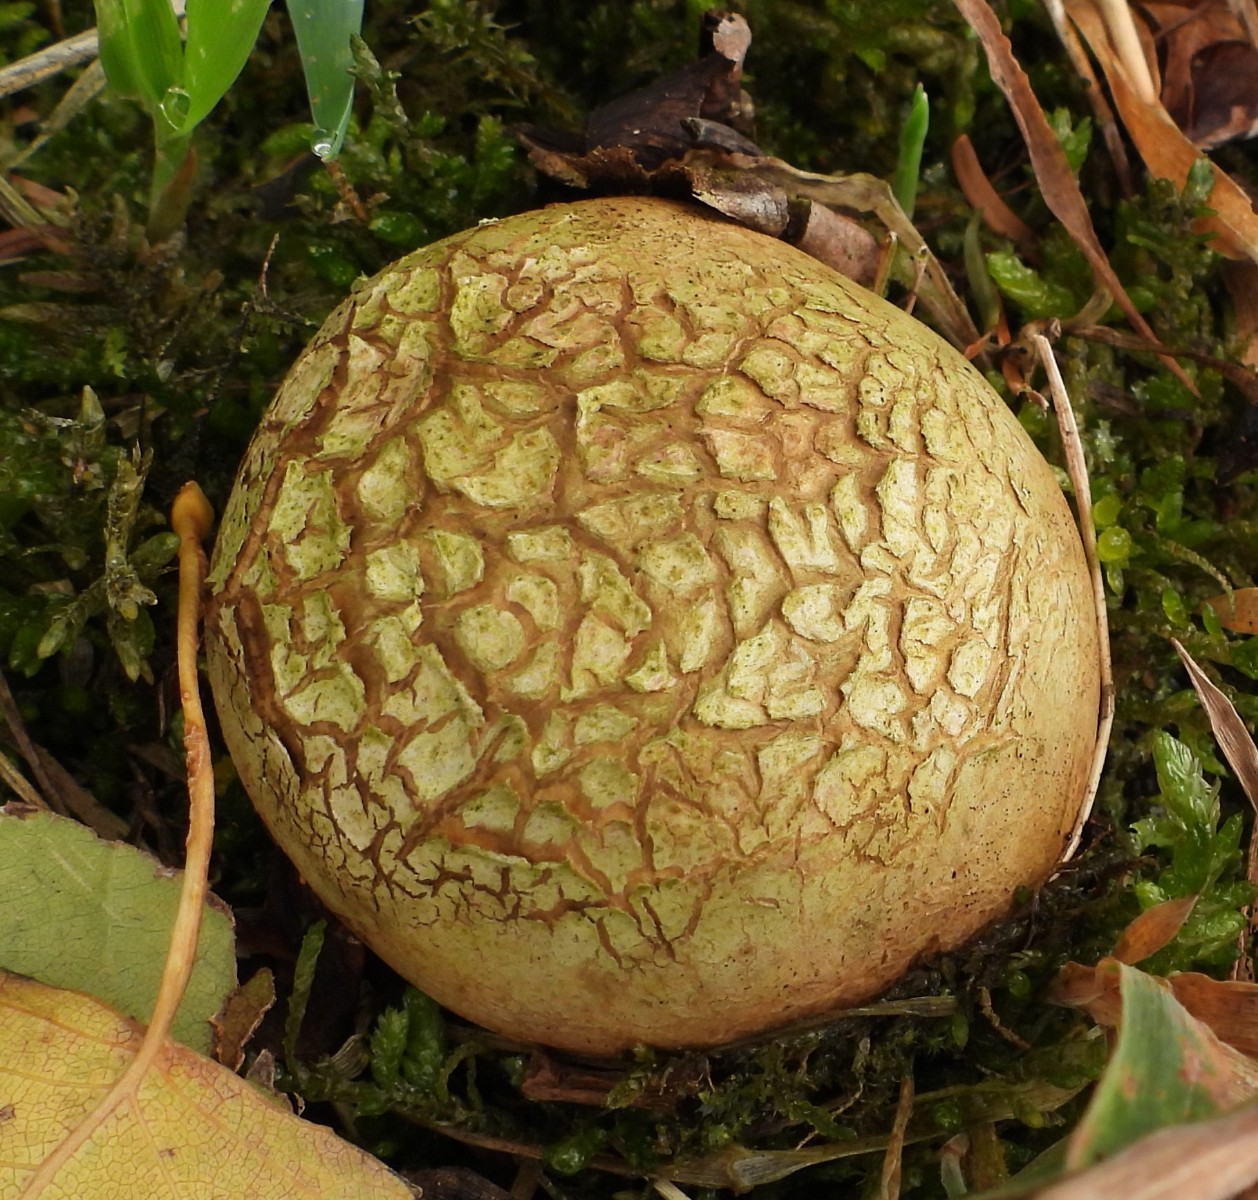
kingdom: Fungi
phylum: Basidiomycota
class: Agaricomycetes
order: Boletales
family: Sclerodermataceae
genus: Scleroderma
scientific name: Scleroderma citrinum
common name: almindelig bruskbold
